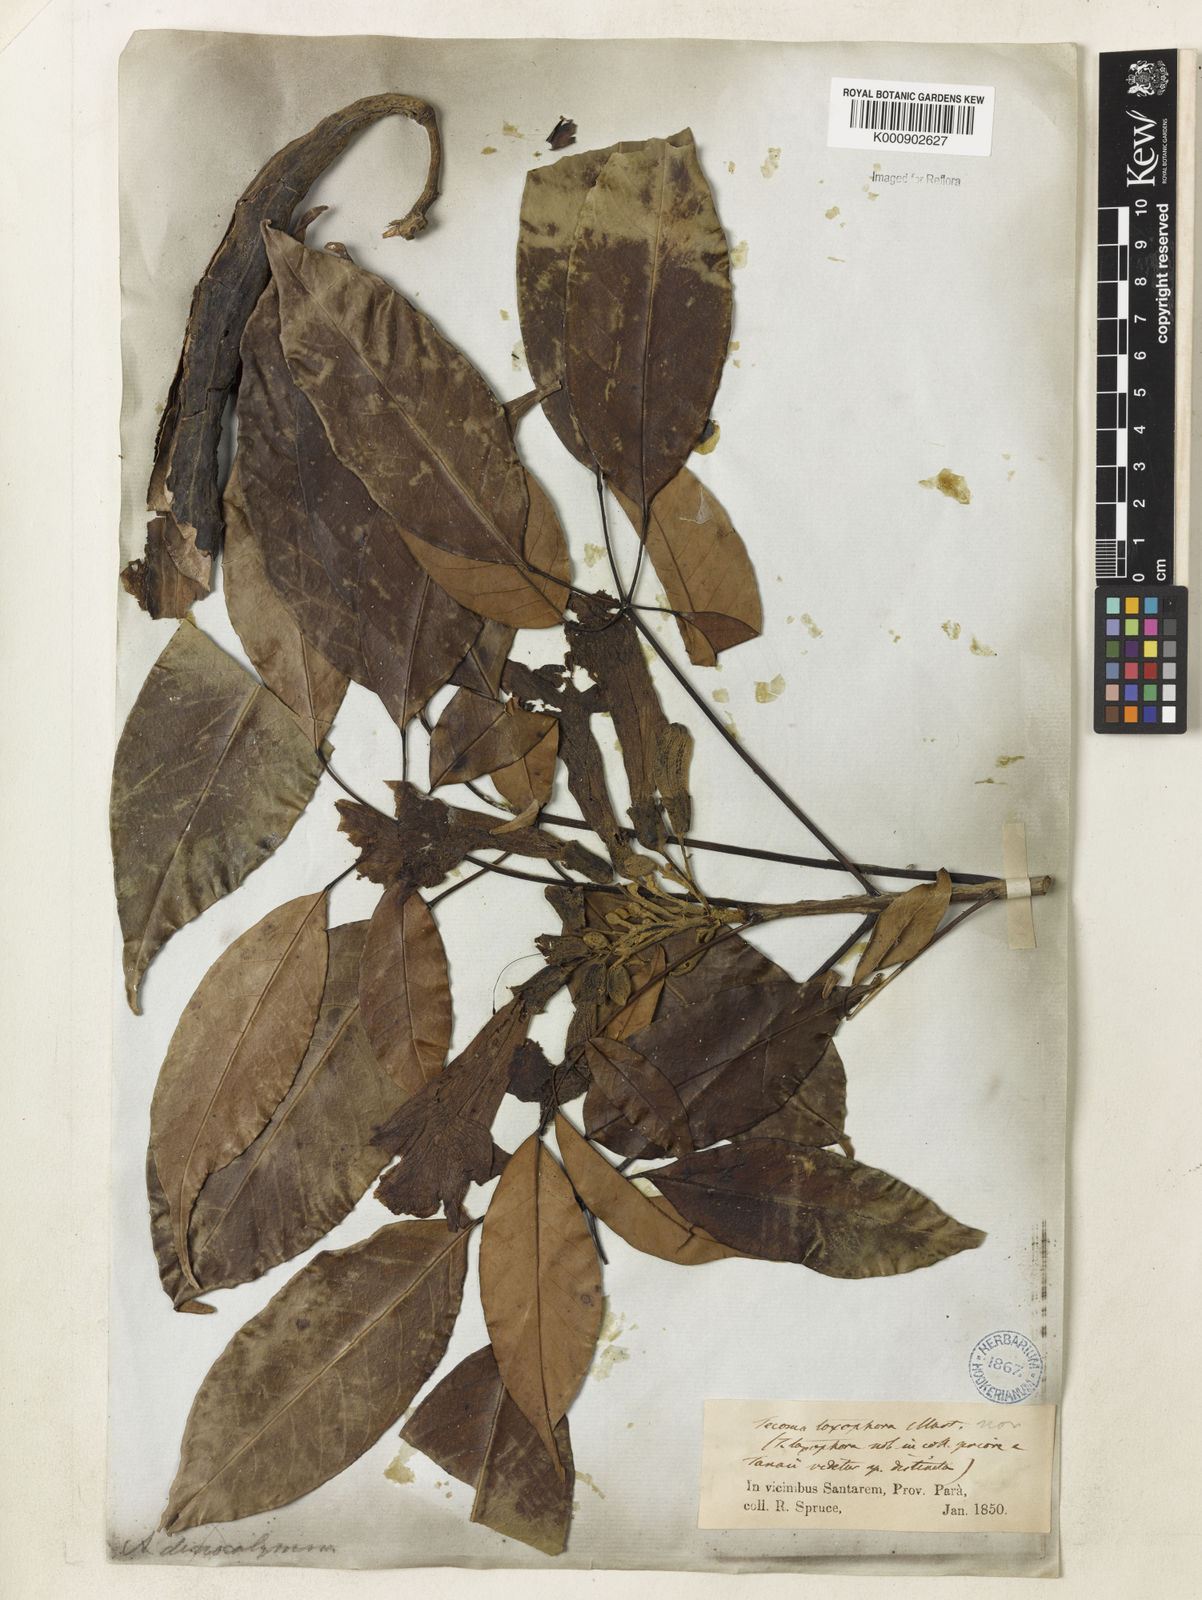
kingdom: Plantae
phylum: Tracheophyta
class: Magnoliopsida
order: Lamiales
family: Bignoniaceae
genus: Handroanthus
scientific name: Handroanthus barbatus
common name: Trumpet trees
